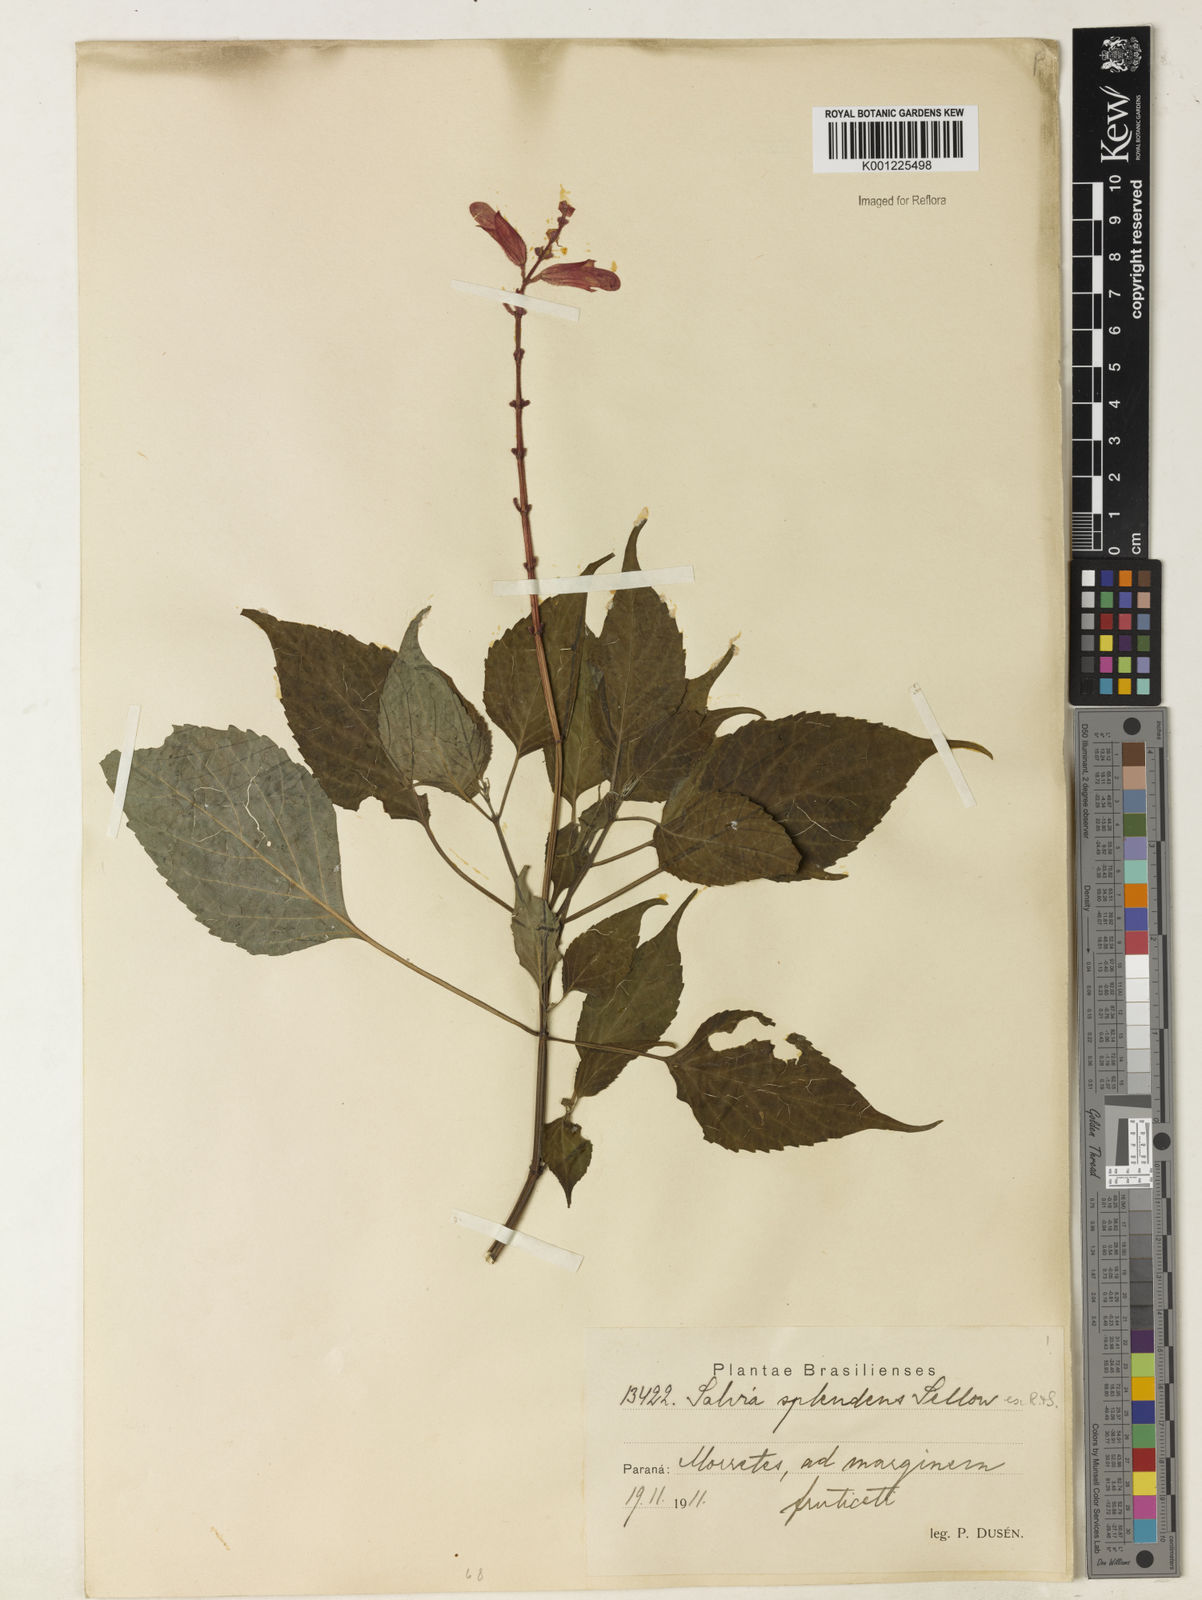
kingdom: Plantae
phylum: Tracheophyta
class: Magnoliopsida
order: Lamiales
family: Lamiaceae
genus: Salvia
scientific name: Salvia
